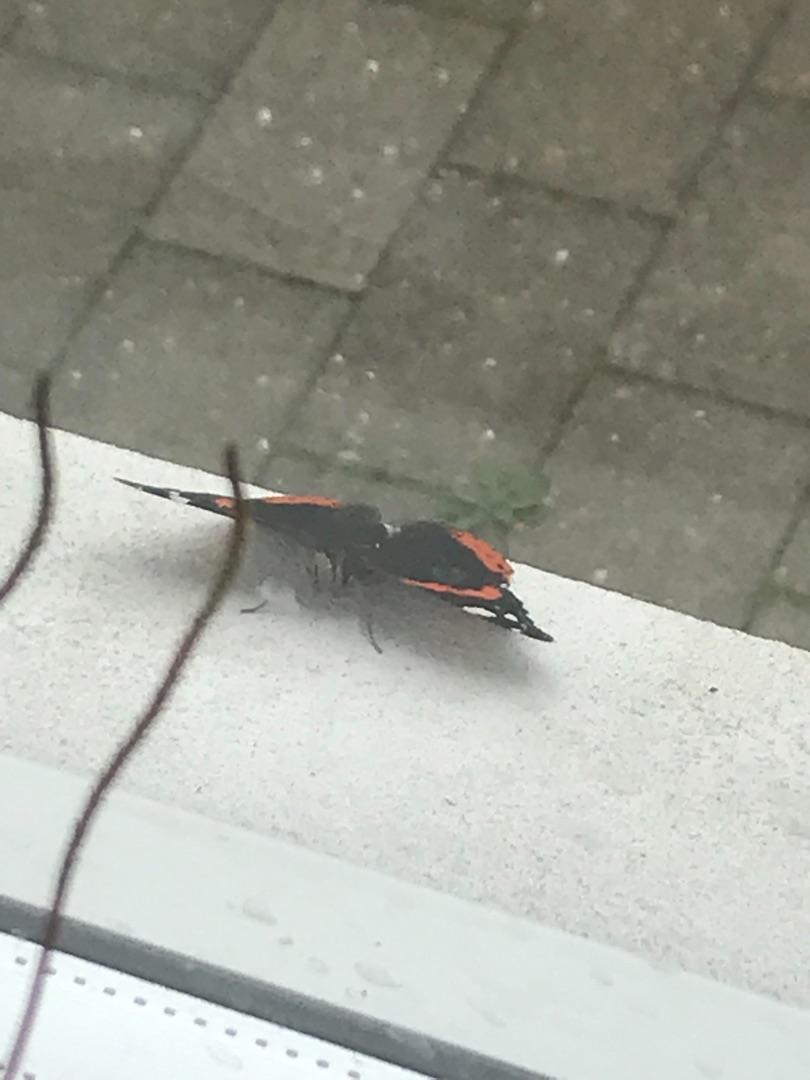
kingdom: Animalia
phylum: Arthropoda
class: Insecta
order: Lepidoptera
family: Nymphalidae
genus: Vanessa
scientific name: Vanessa atalanta
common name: Admiral
